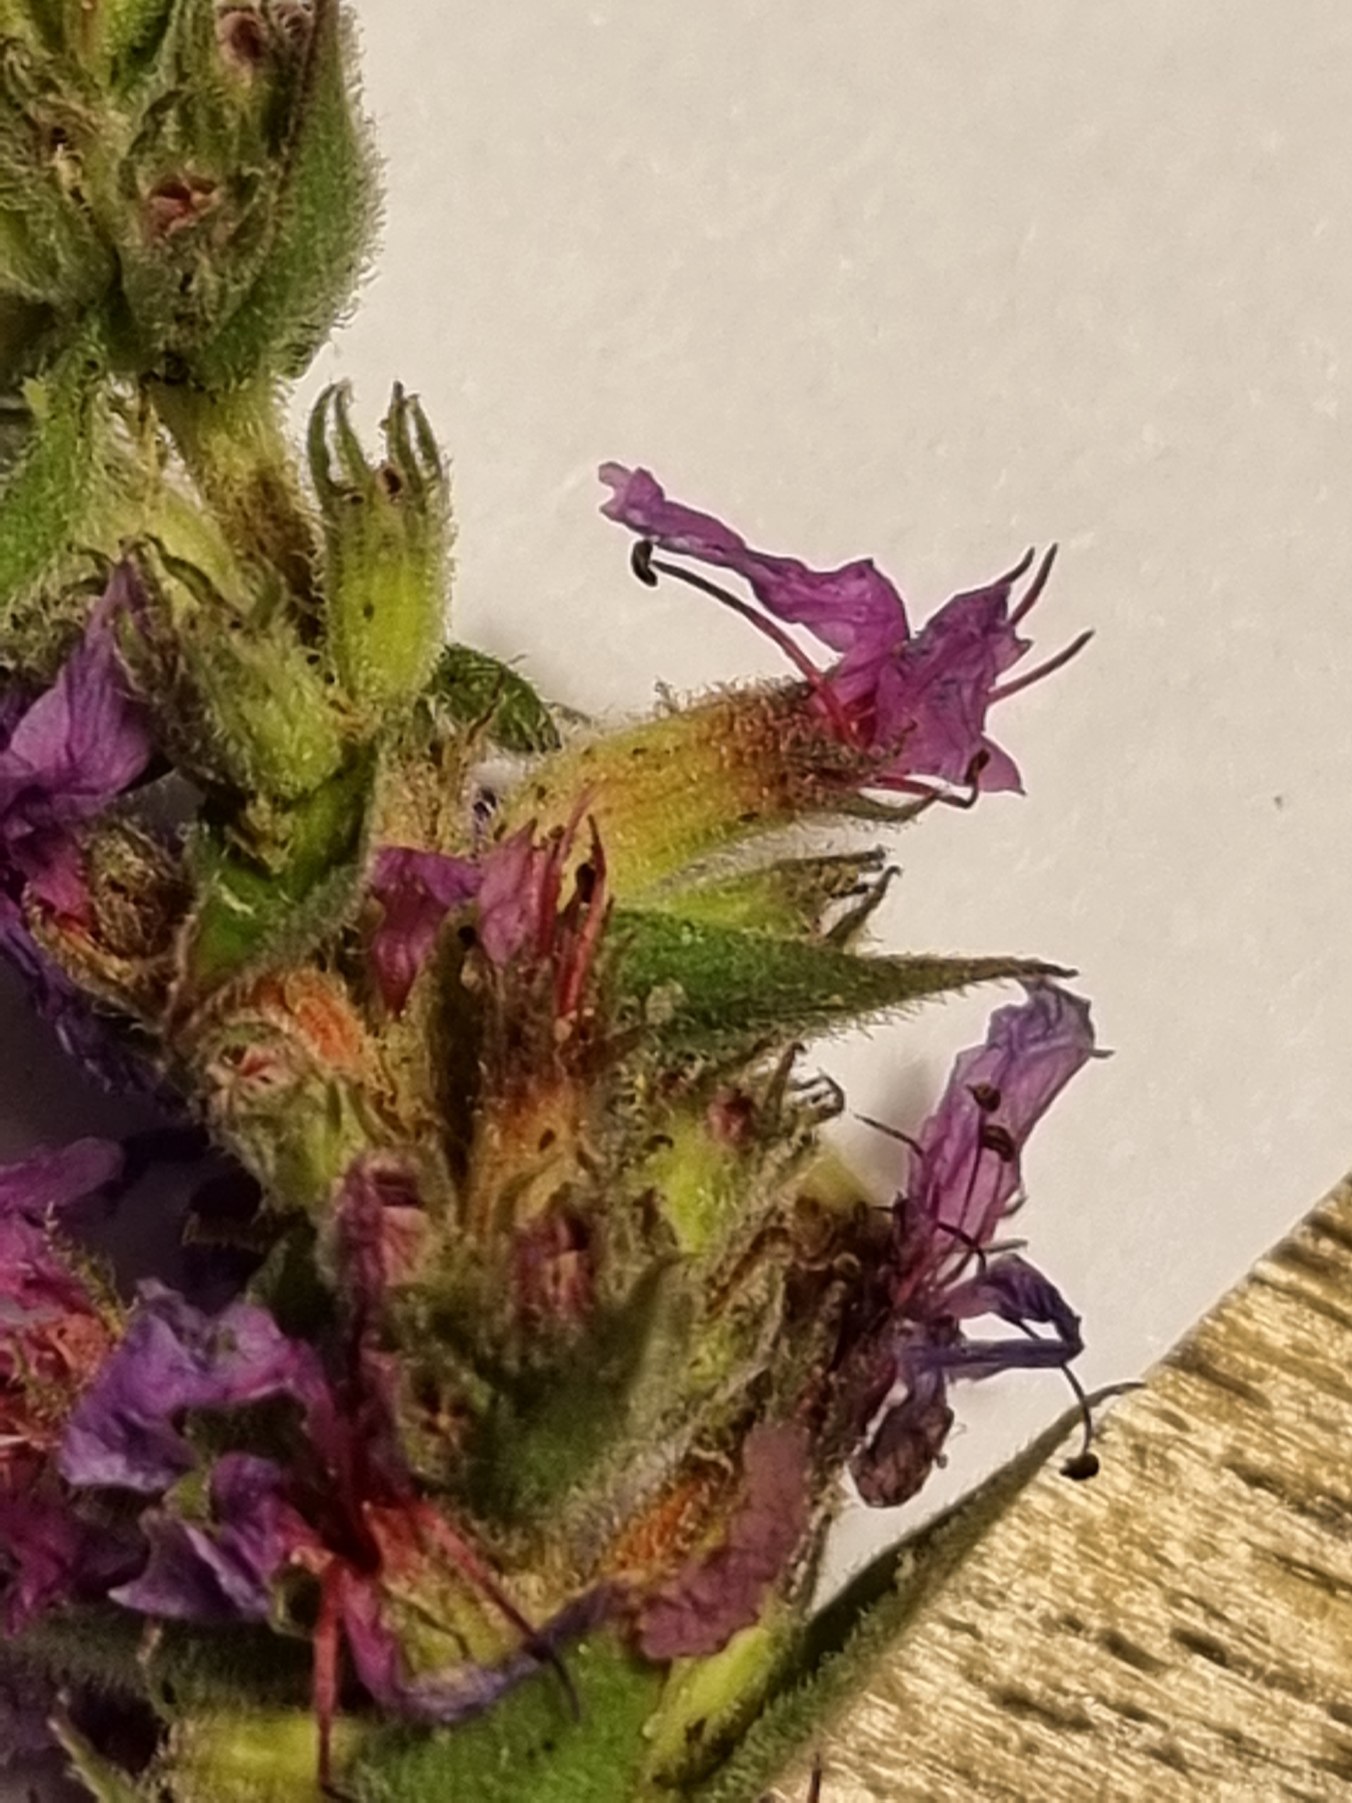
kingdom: Plantae
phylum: Tracheophyta
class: Magnoliopsida
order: Myrtales
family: Lythraceae
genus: Lythrum
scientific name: Lythrum salicaria
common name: Kattehale
